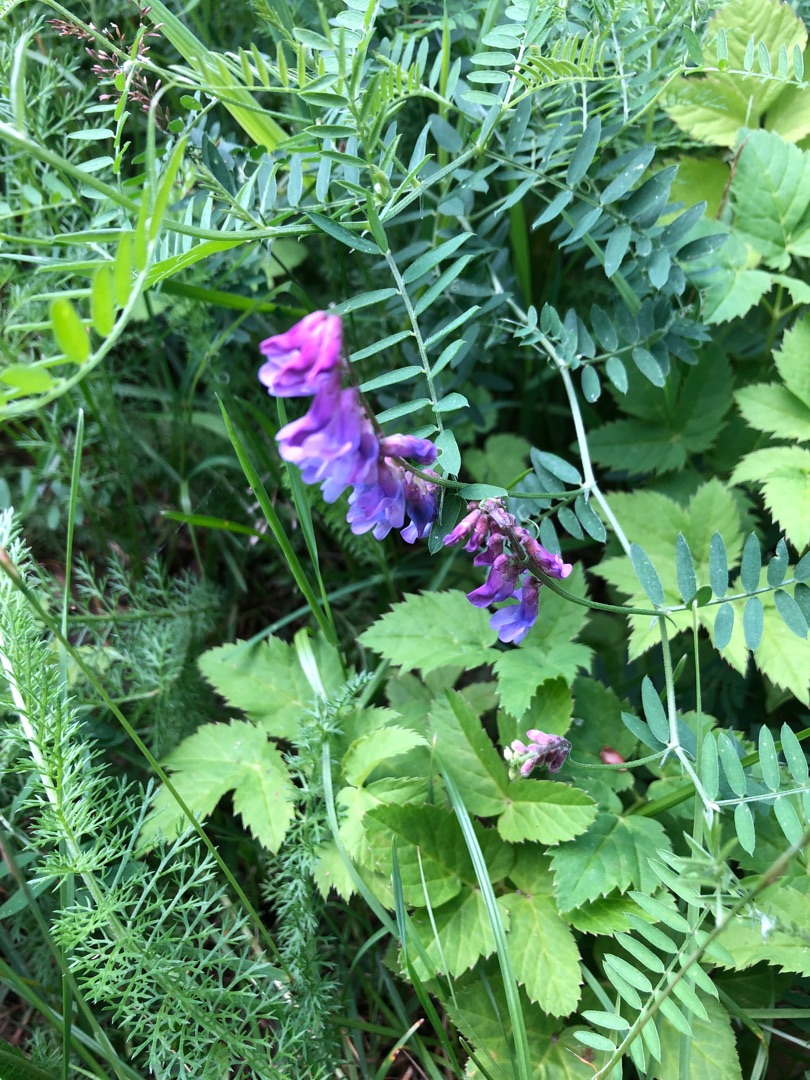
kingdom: Plantae
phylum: Tracheophyta
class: Magnoliopsida
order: Fabales
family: Fabaceae
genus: Vicia
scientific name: Vicia cracca
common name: Muse-vikke
